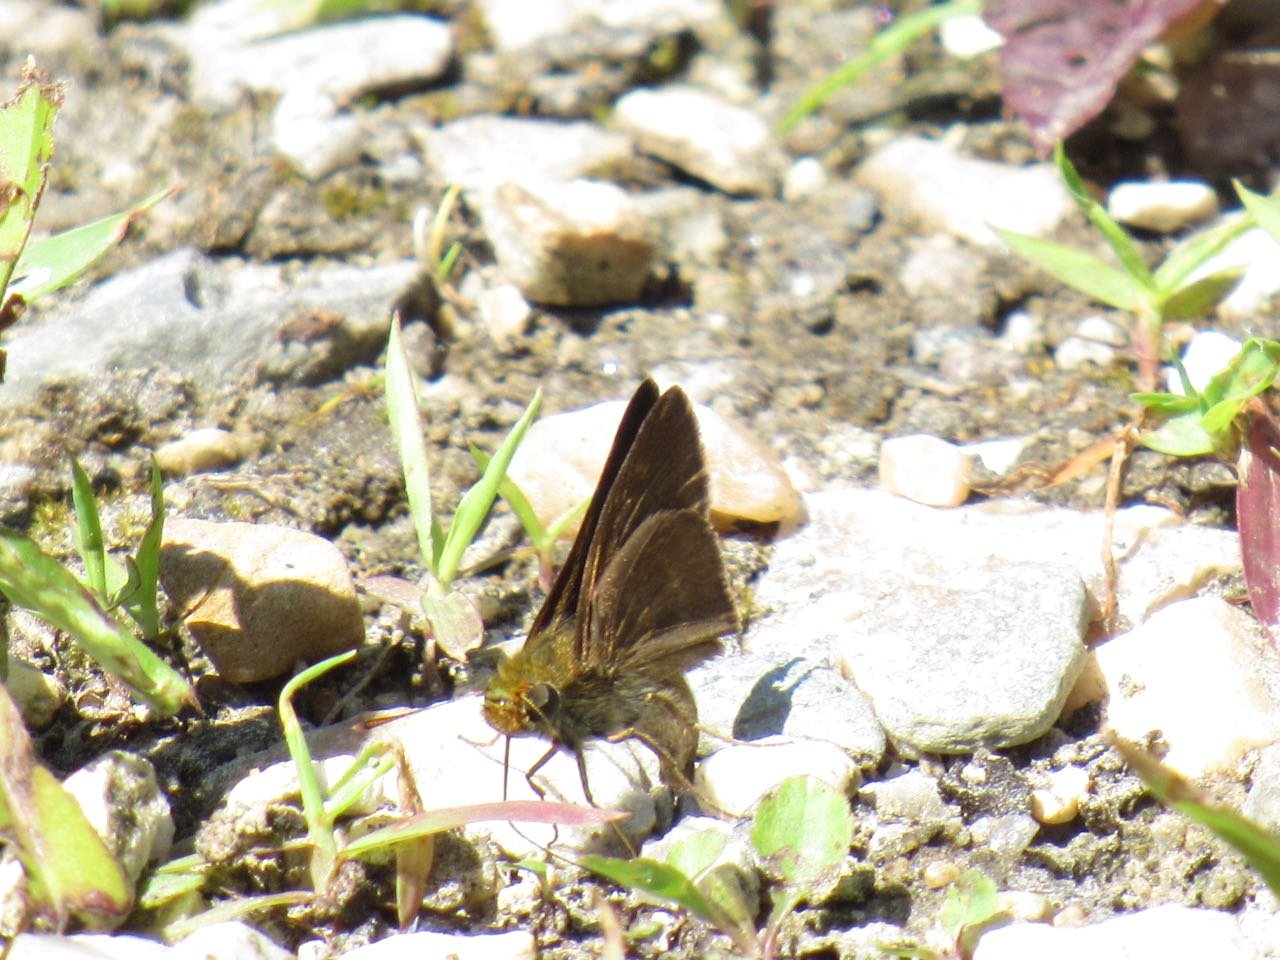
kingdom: Animalia
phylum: Arthropoda
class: Insecta
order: Lepidoptera
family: Hesperiidae
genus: Euphyes
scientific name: Euphyes vestris
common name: Dun Skipper
